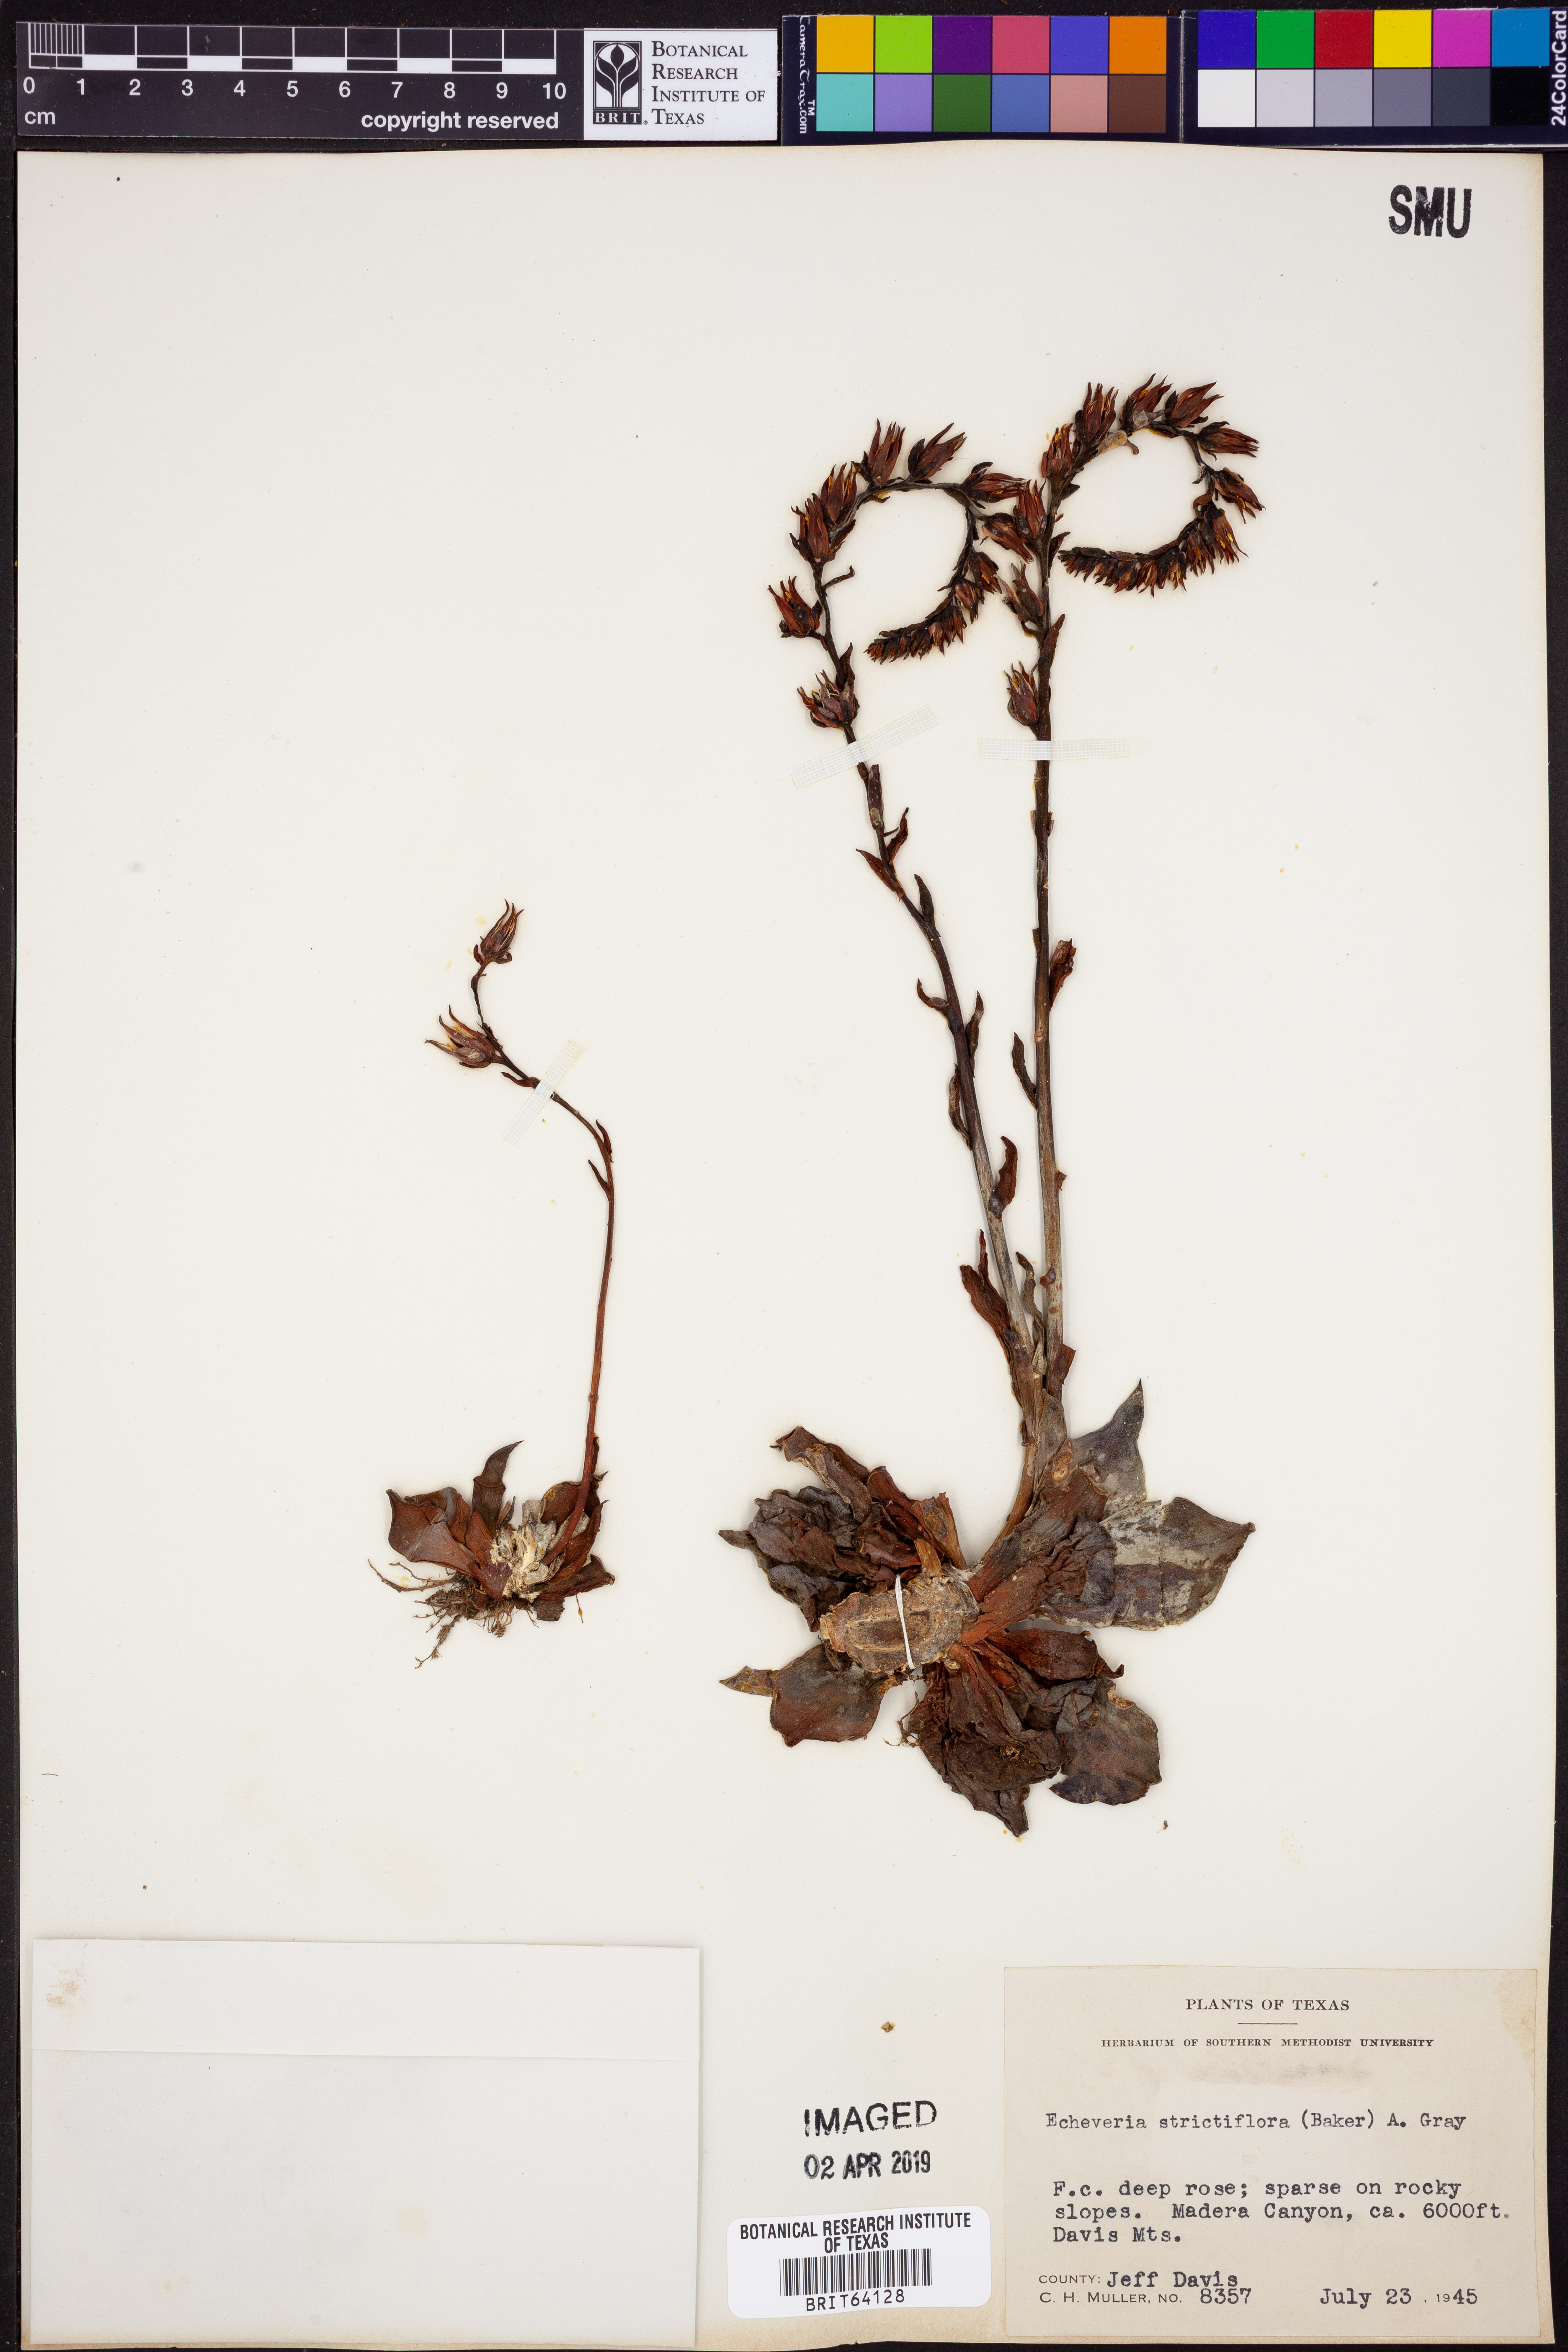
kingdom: Plantae
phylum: Tracheophyta
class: Magnoliopsida
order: Saxifragales
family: Crassulaceae
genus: Echeveria
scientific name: Echeveria strictiflora
